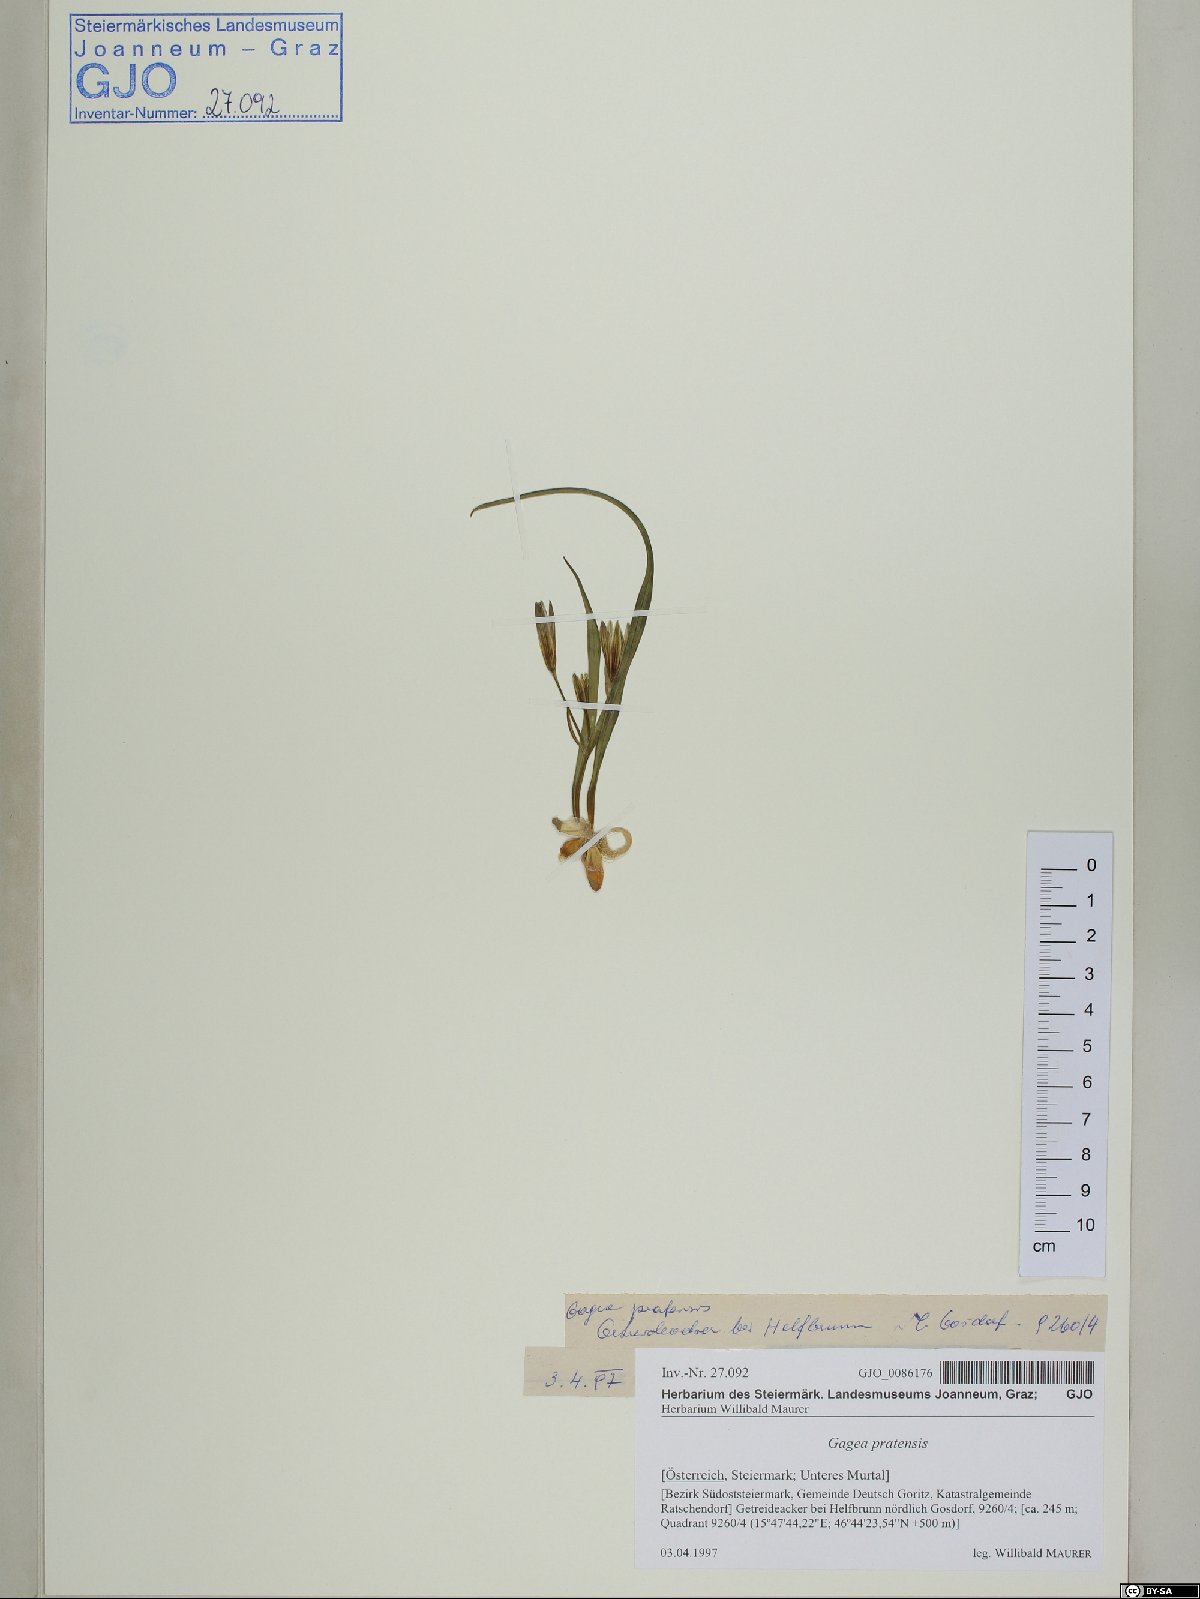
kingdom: Plantae
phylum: Tracheophyta
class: Liliopsida
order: Liliales
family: Liliaceae
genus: Gagea
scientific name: Gagea pratensis
